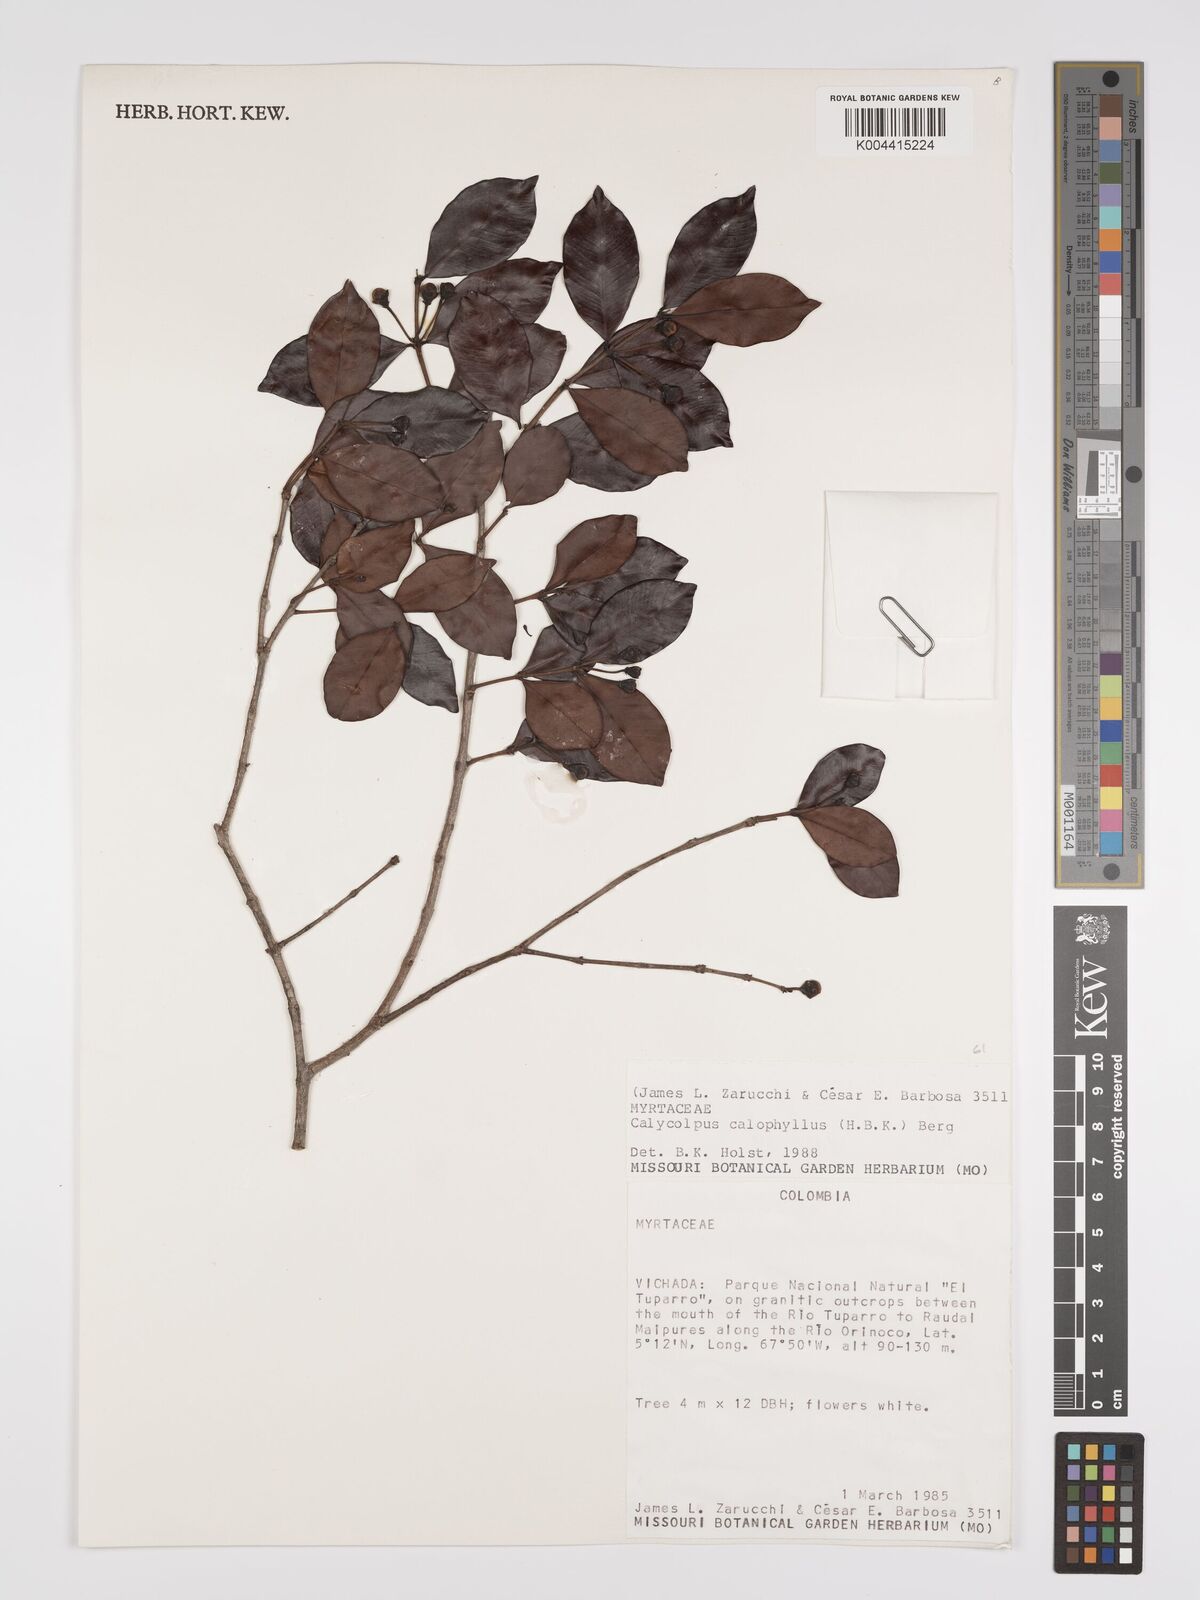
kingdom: Plantae
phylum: Tracheophyta
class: Magnoliopsida
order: Myrtales
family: Myrtaceae
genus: Calycolpus
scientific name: Calycolpus calophyllus
